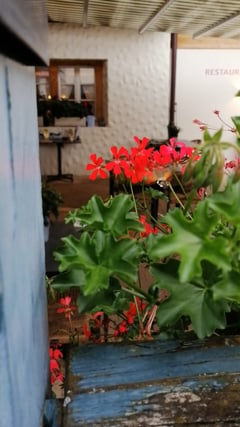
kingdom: Animalia
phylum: Arthropoda
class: Insecta
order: Lepidoptera
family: Sphingidae
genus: Macroglossum
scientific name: Macroglossum stellatarum
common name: Humming-bird hawk-moth
